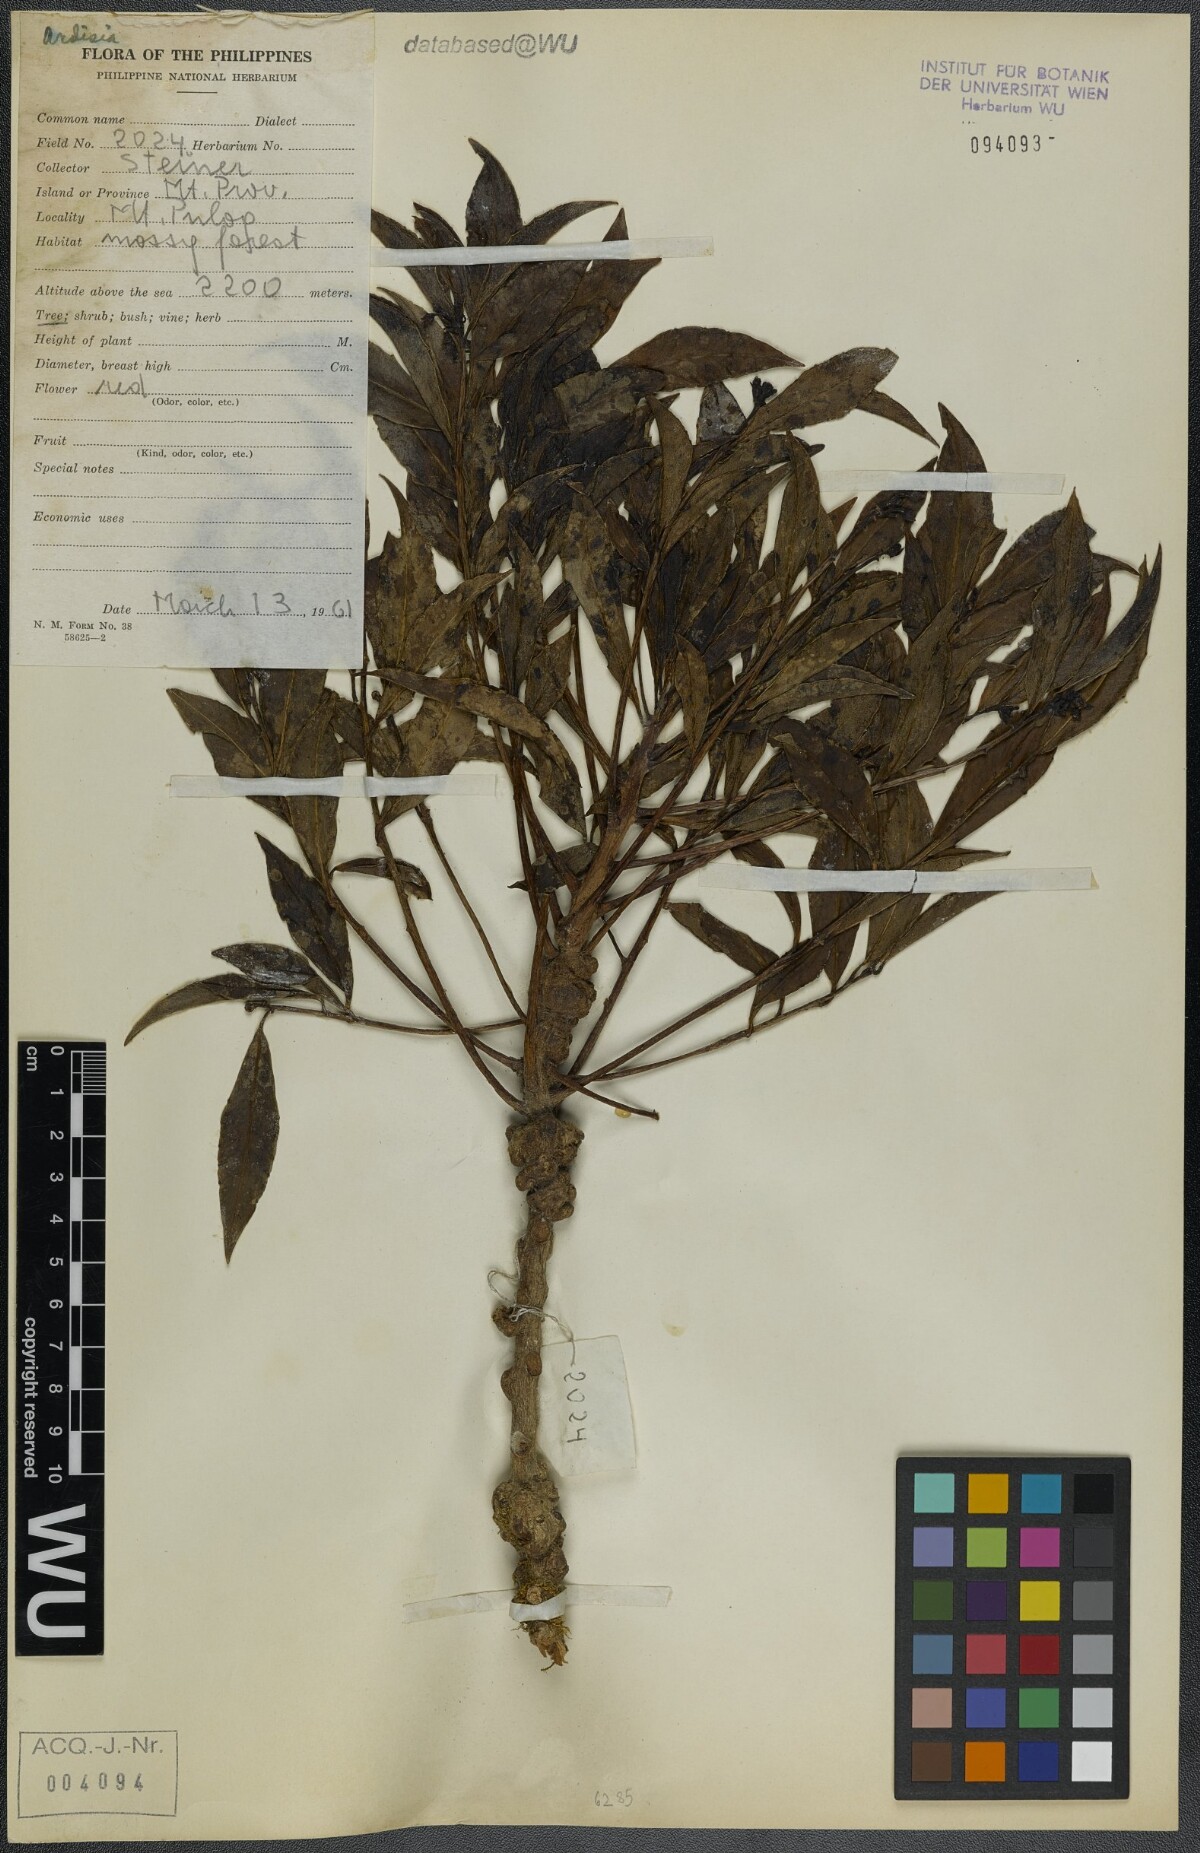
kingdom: Plantae
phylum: Tracheophyta
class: Magnoliopsida
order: Ericales
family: Primulaceae
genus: Ardisia
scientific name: Ardisia
